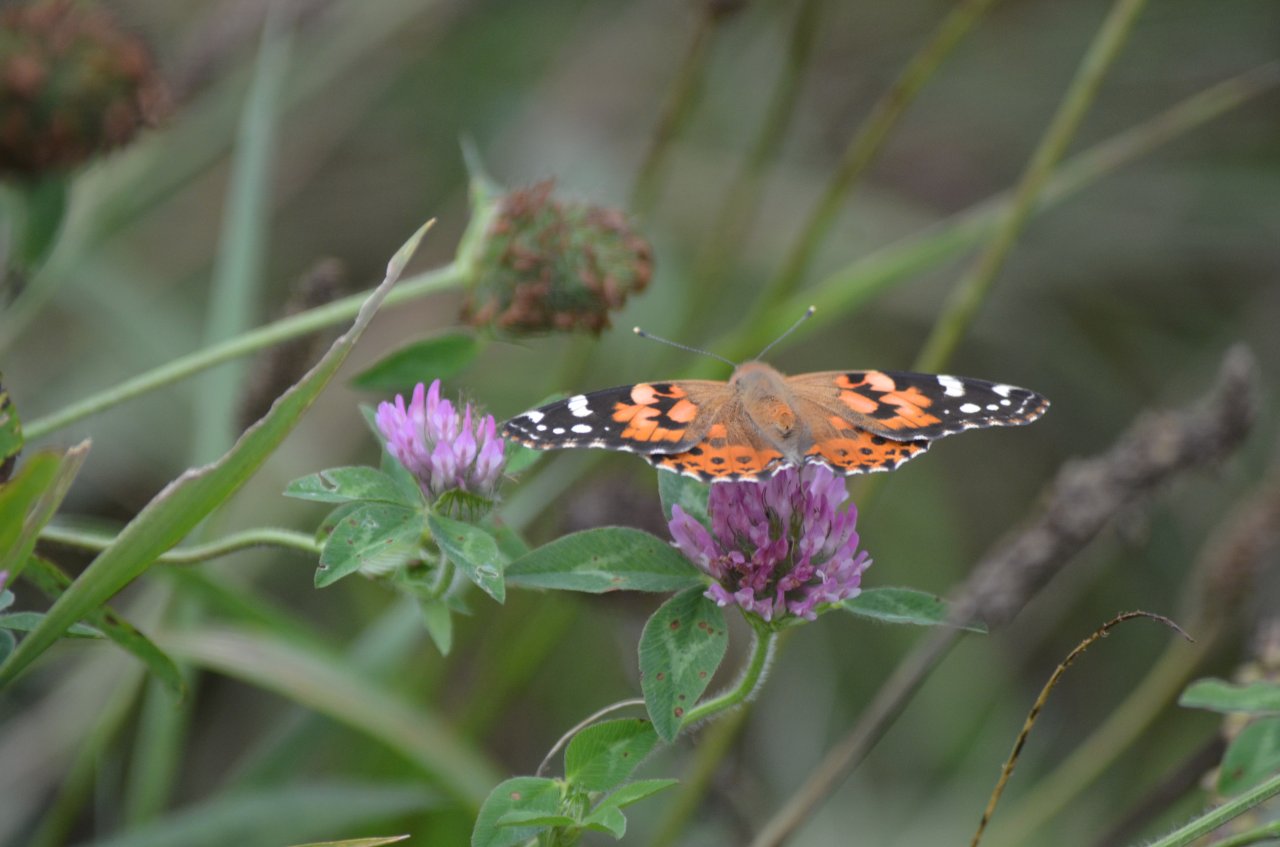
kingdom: Animalia
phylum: Arthropoda
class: Insecta
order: Lepidoptera
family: Nymphalidae
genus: Vanessa
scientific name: Vanessa cardui
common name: Painted Lady
